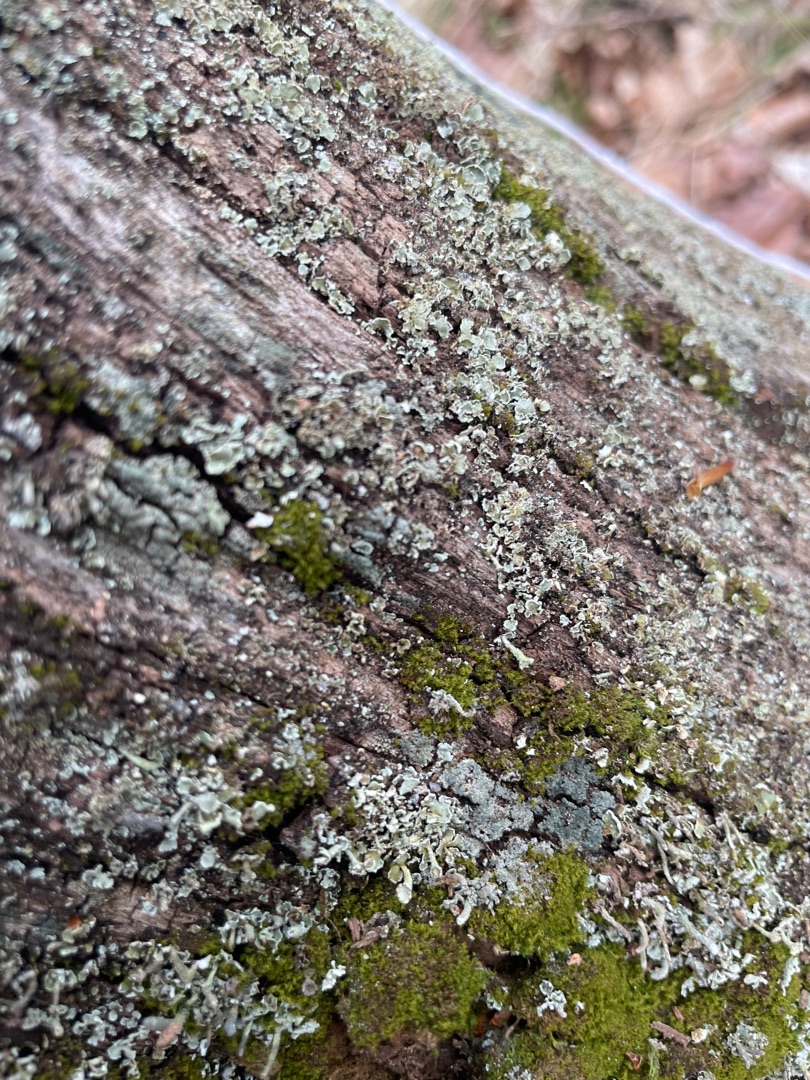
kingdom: Fungi
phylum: Ascomycota
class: Lecanoromycetes
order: Lecanorales
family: Cladoniaceae
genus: Cladonia
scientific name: Cladonia
